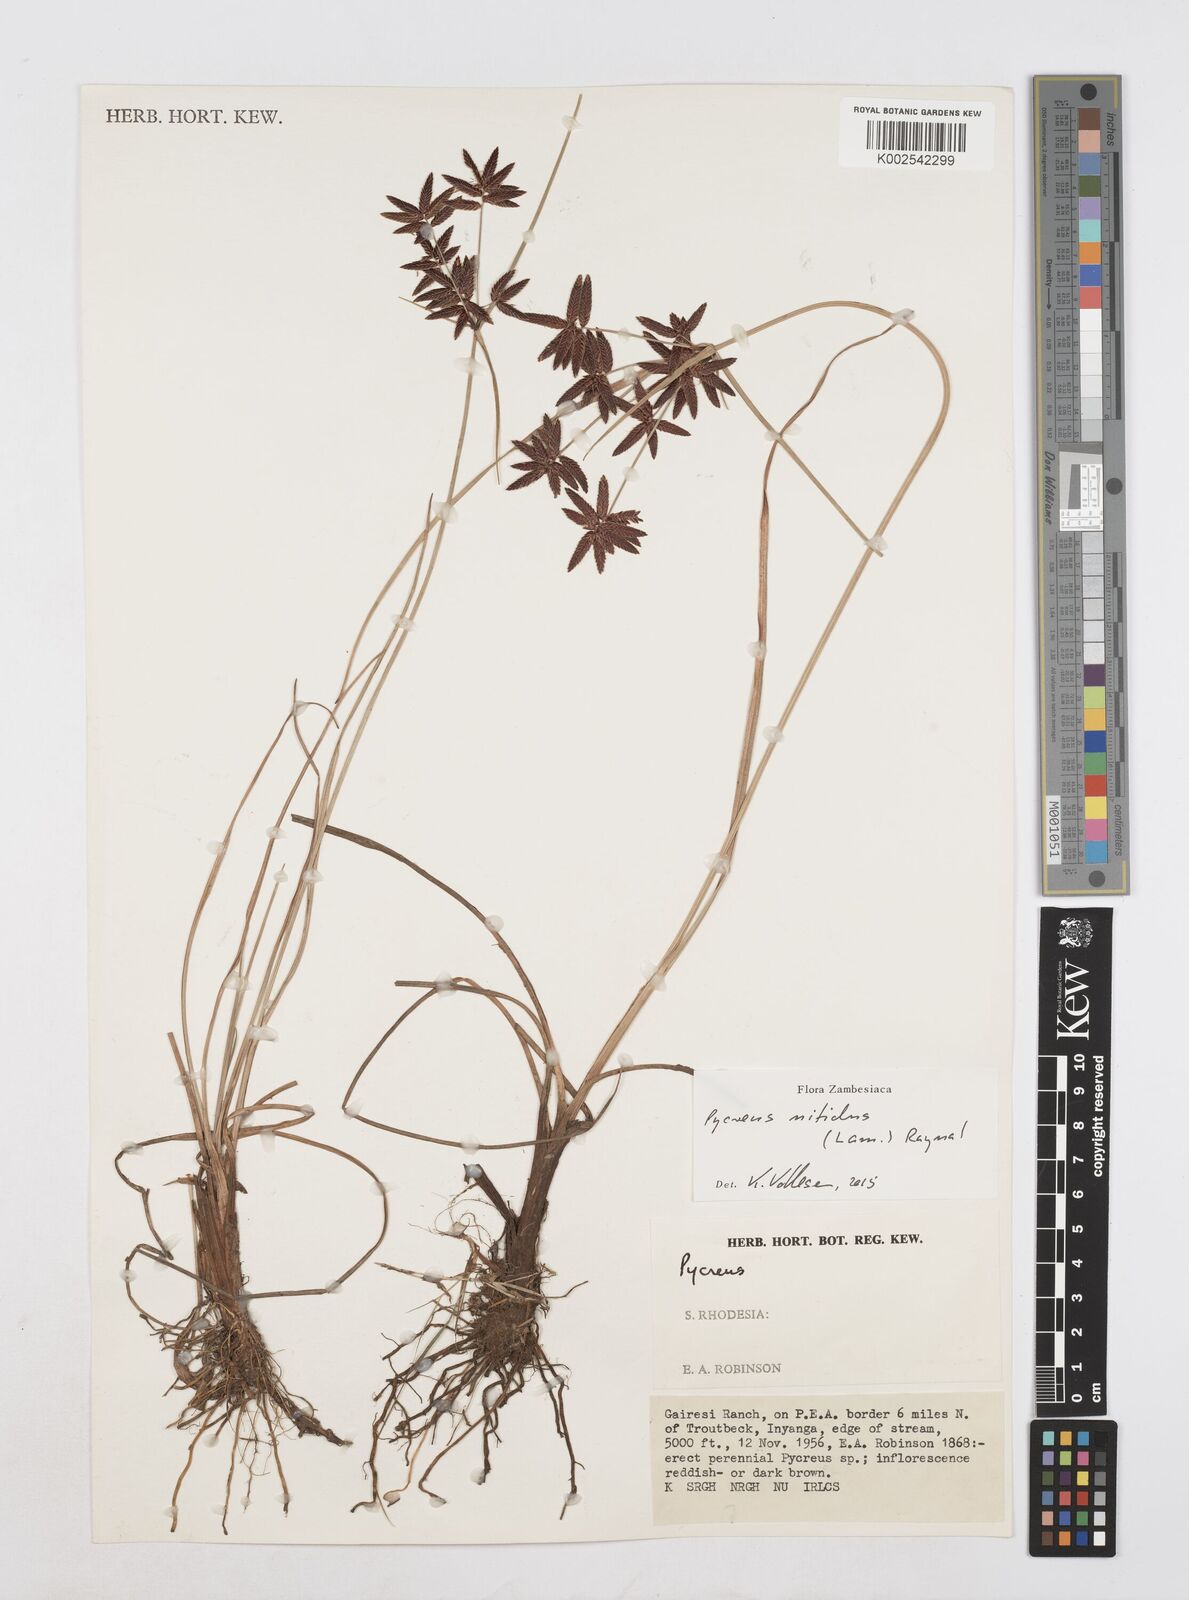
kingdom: Plantae
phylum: Tracheophyta
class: Liliopsida
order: Poales
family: Cyperaceae
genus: Cyperus
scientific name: Cyperus nitidus
